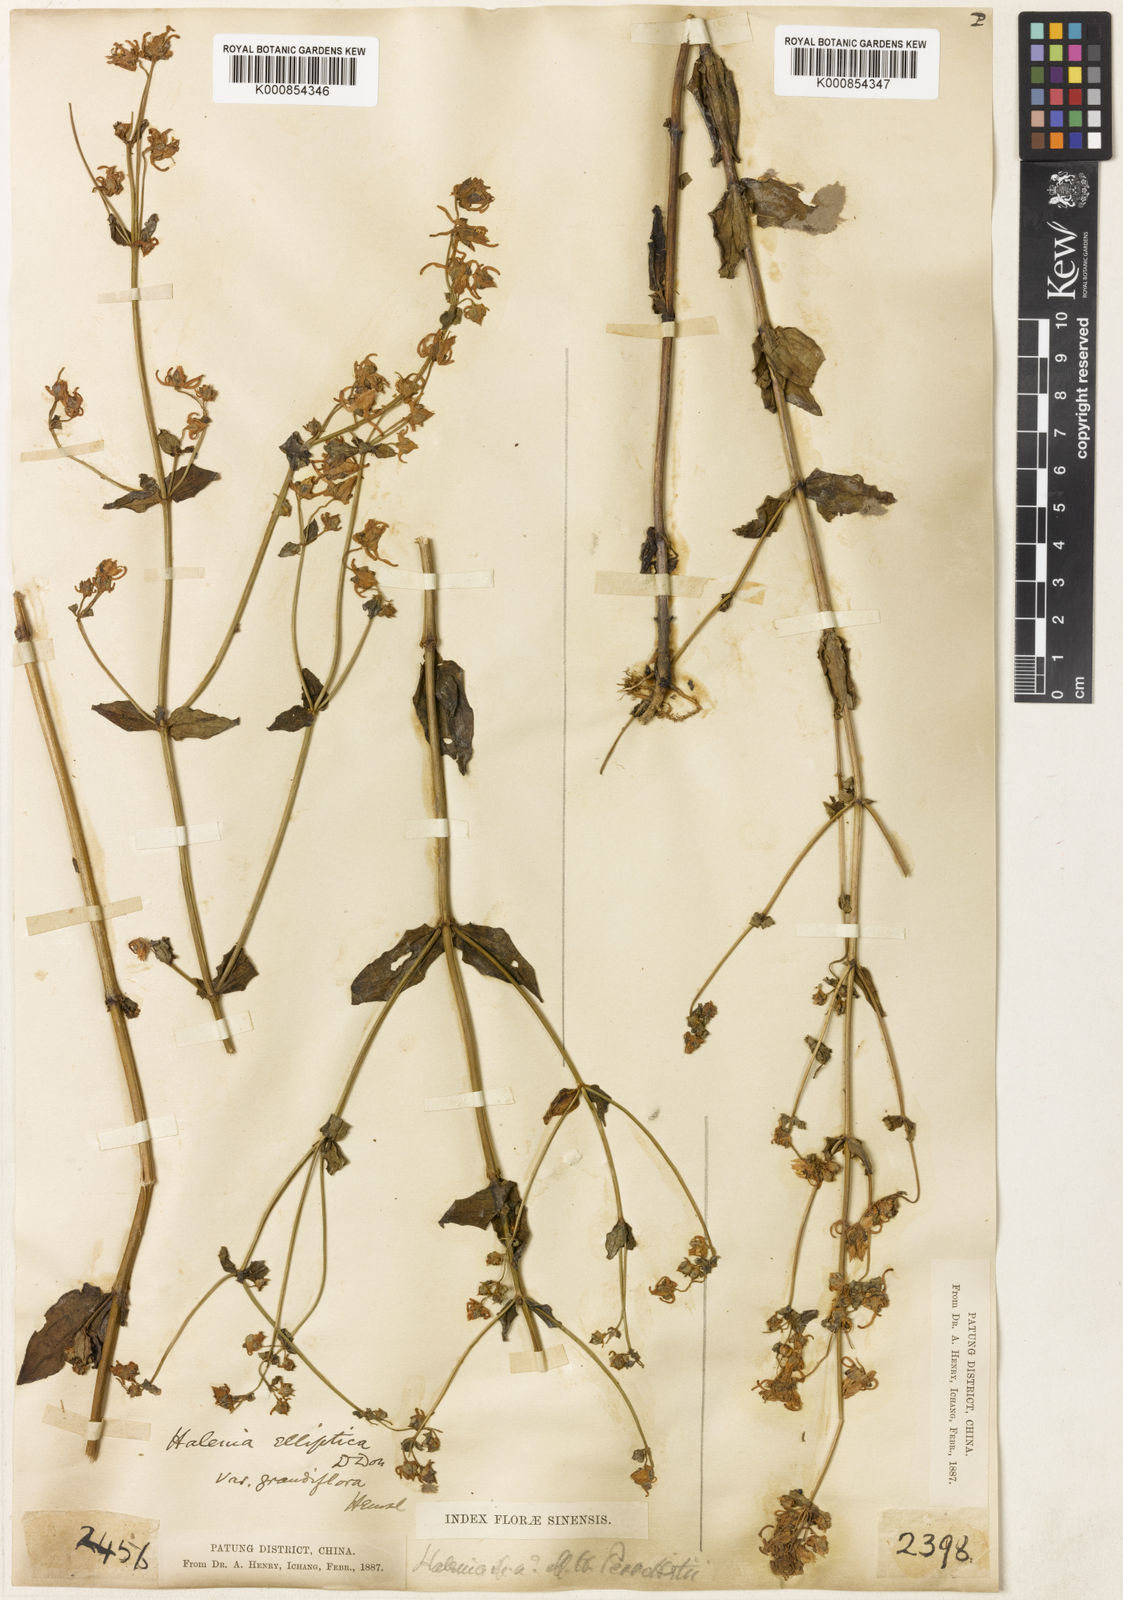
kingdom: Plantae
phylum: Tracheophyta
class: Magnoliopsida
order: Gentianales
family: Gentianaceae
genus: Halenia
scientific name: Halenia elliptica
